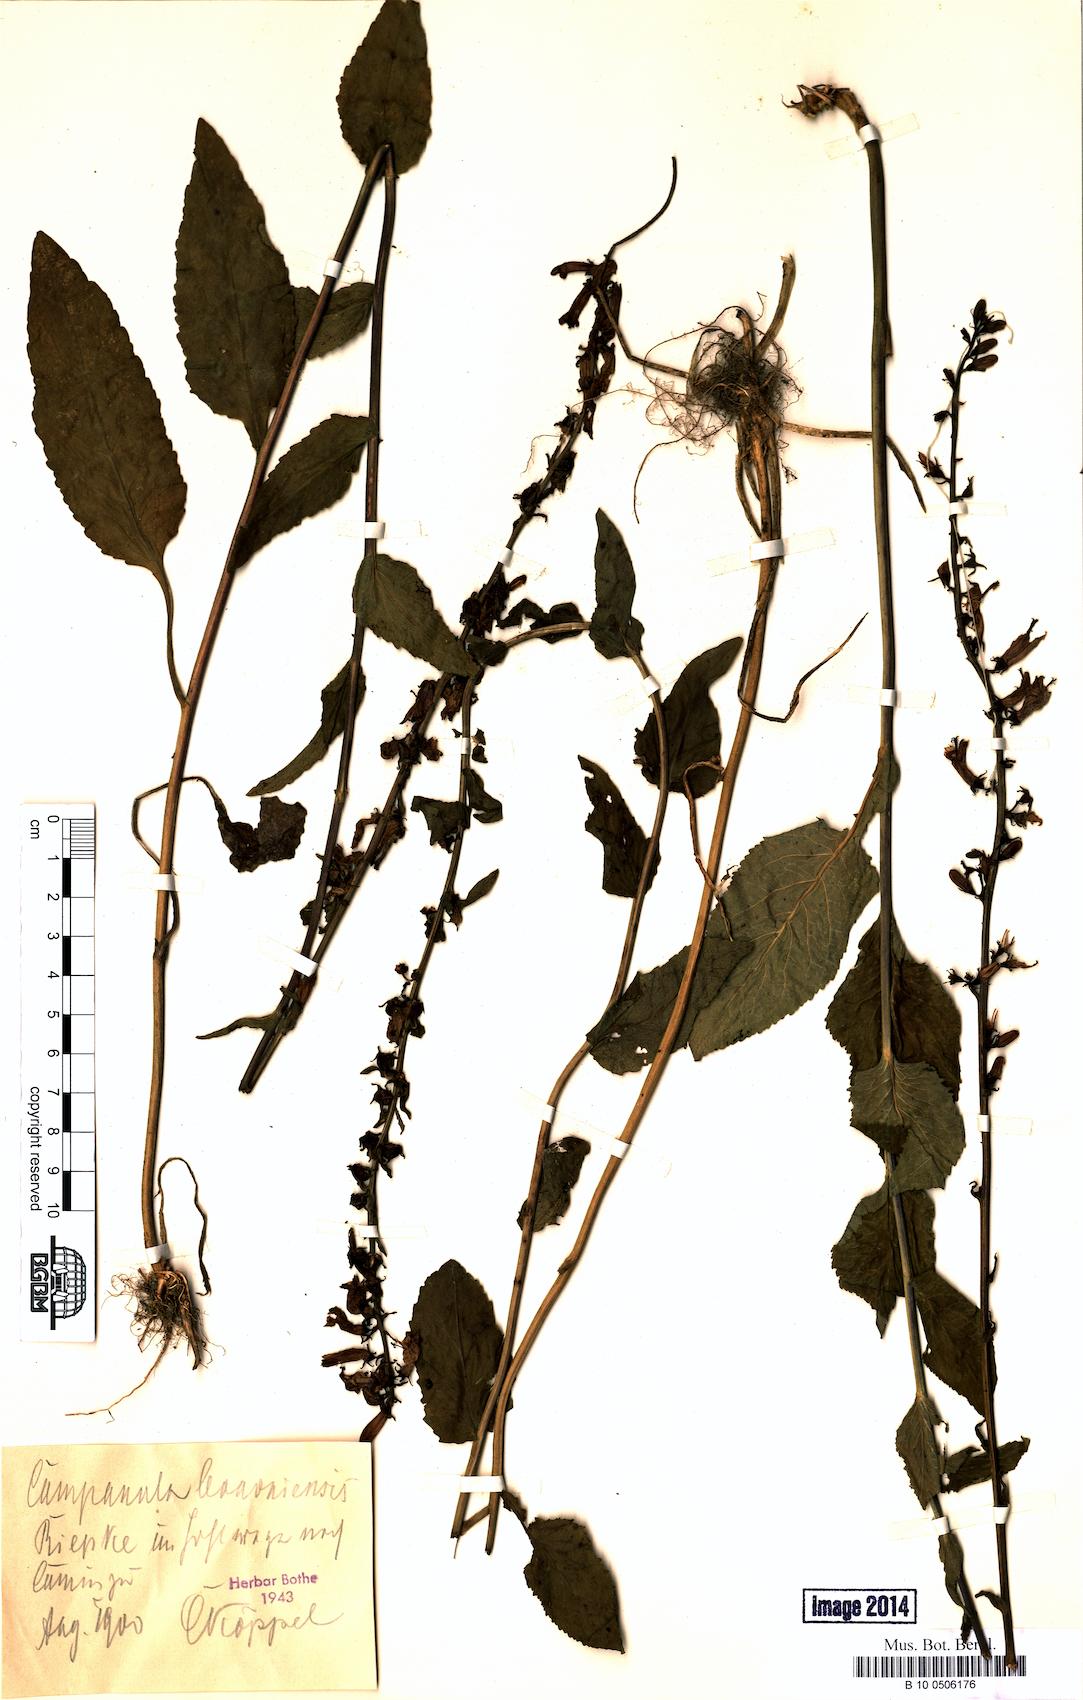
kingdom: Plantae
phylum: Tracheophyta
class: Magnoliopsida
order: Asterales
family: Campanulaceae
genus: Campanula
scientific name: Campanula bononiensis
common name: Pale bellflower
